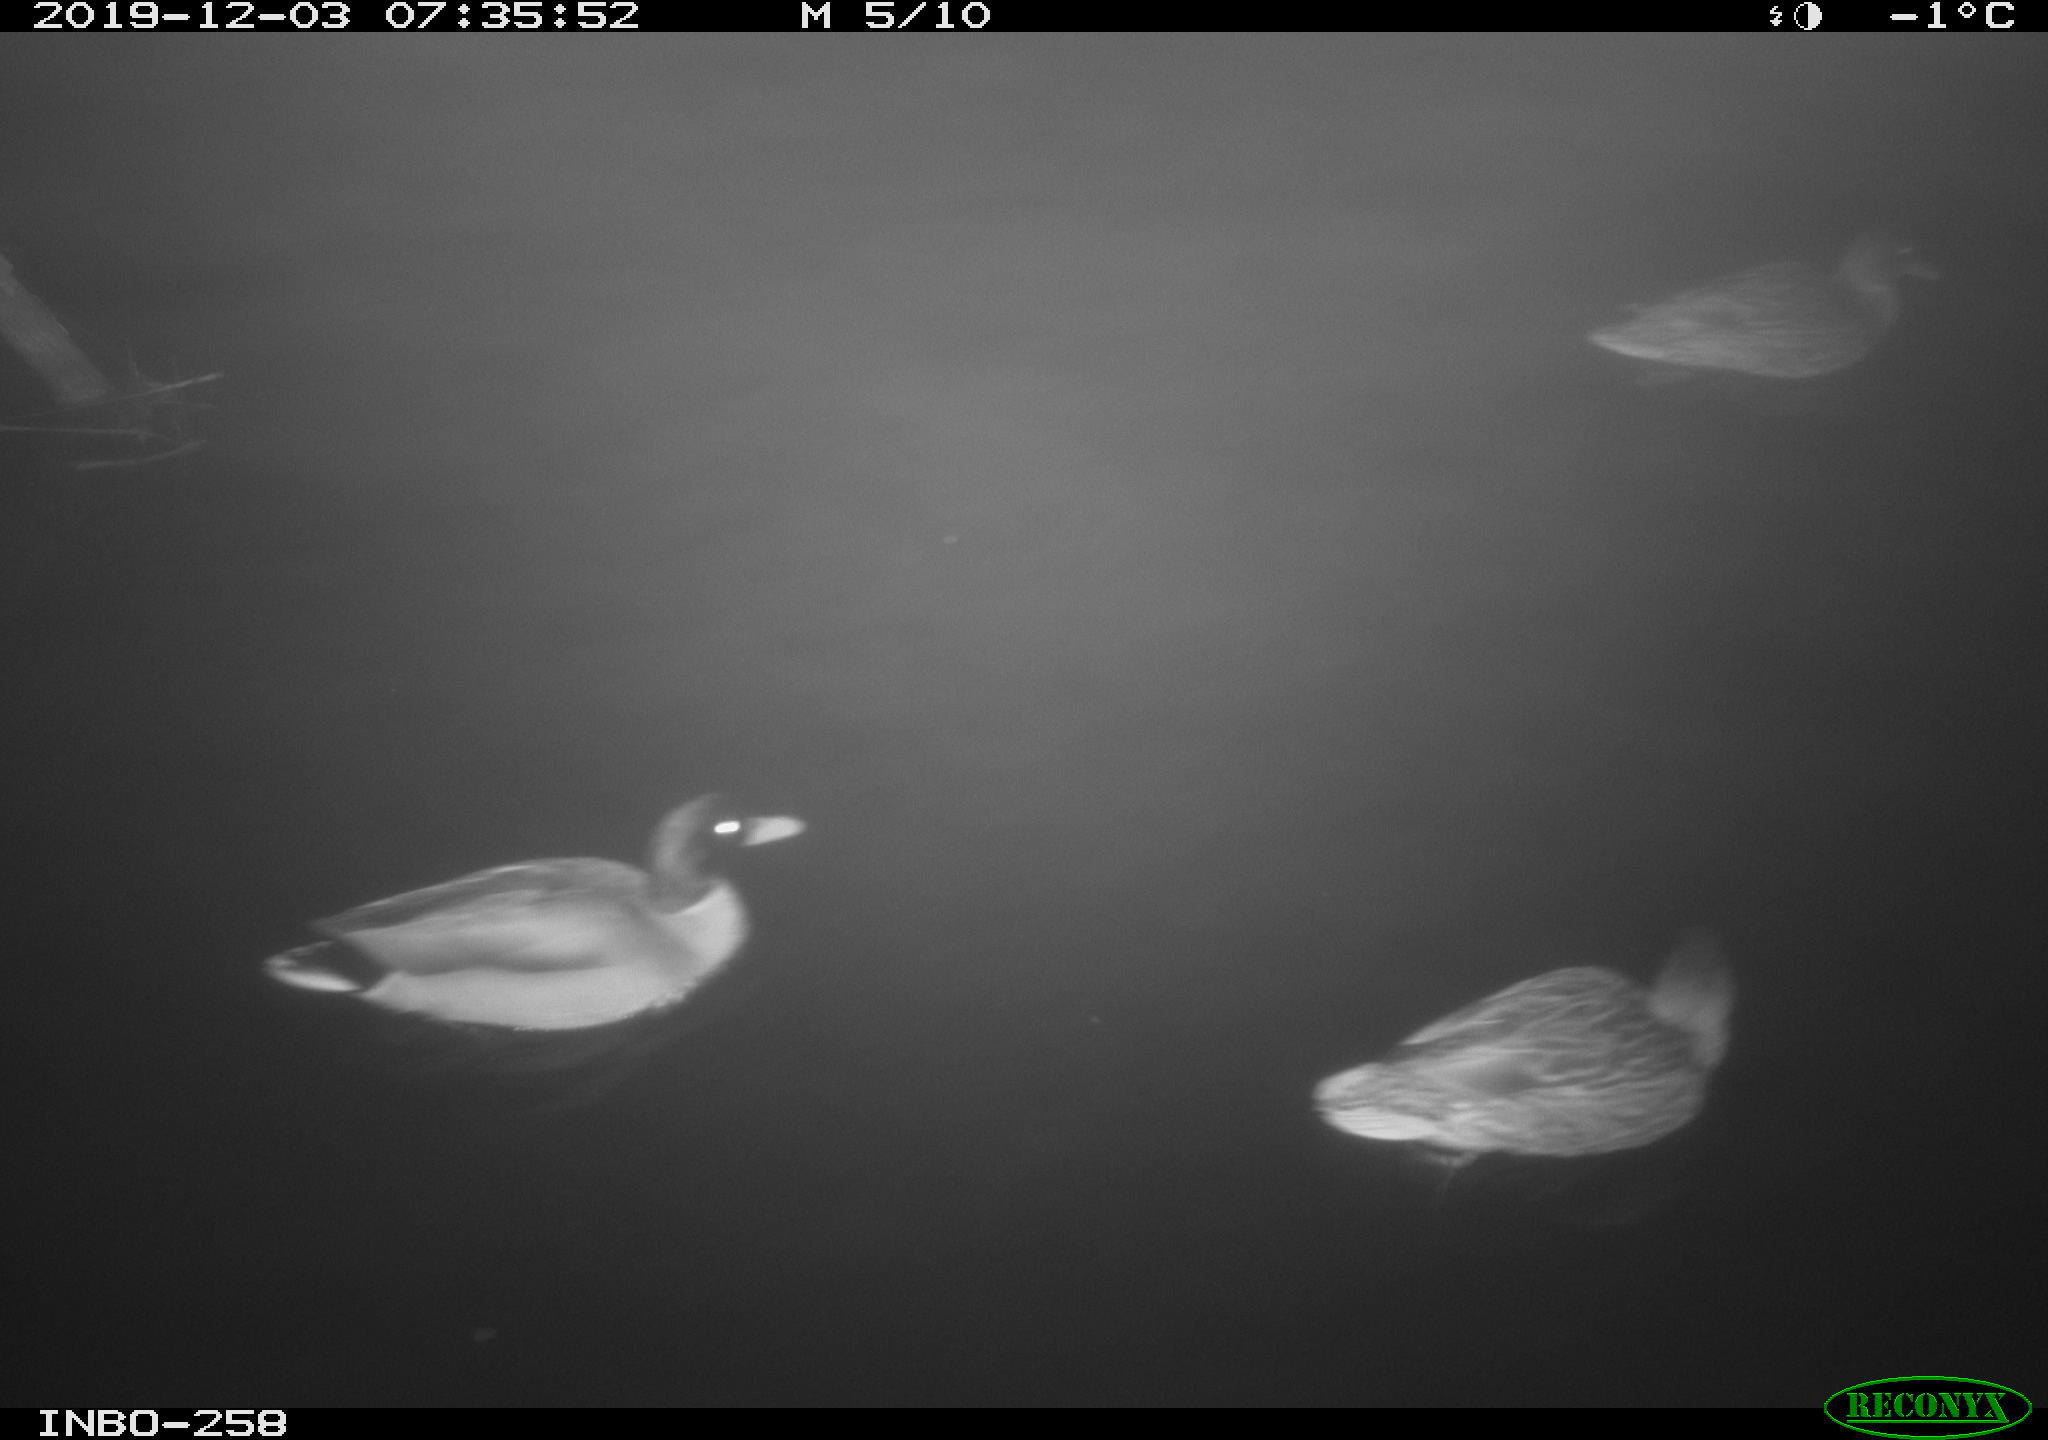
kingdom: Animalia
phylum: Chordata
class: Aves
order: Anseriformes
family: Anatidae
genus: Anas
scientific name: Anas platyrhynchos
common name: Mallard
